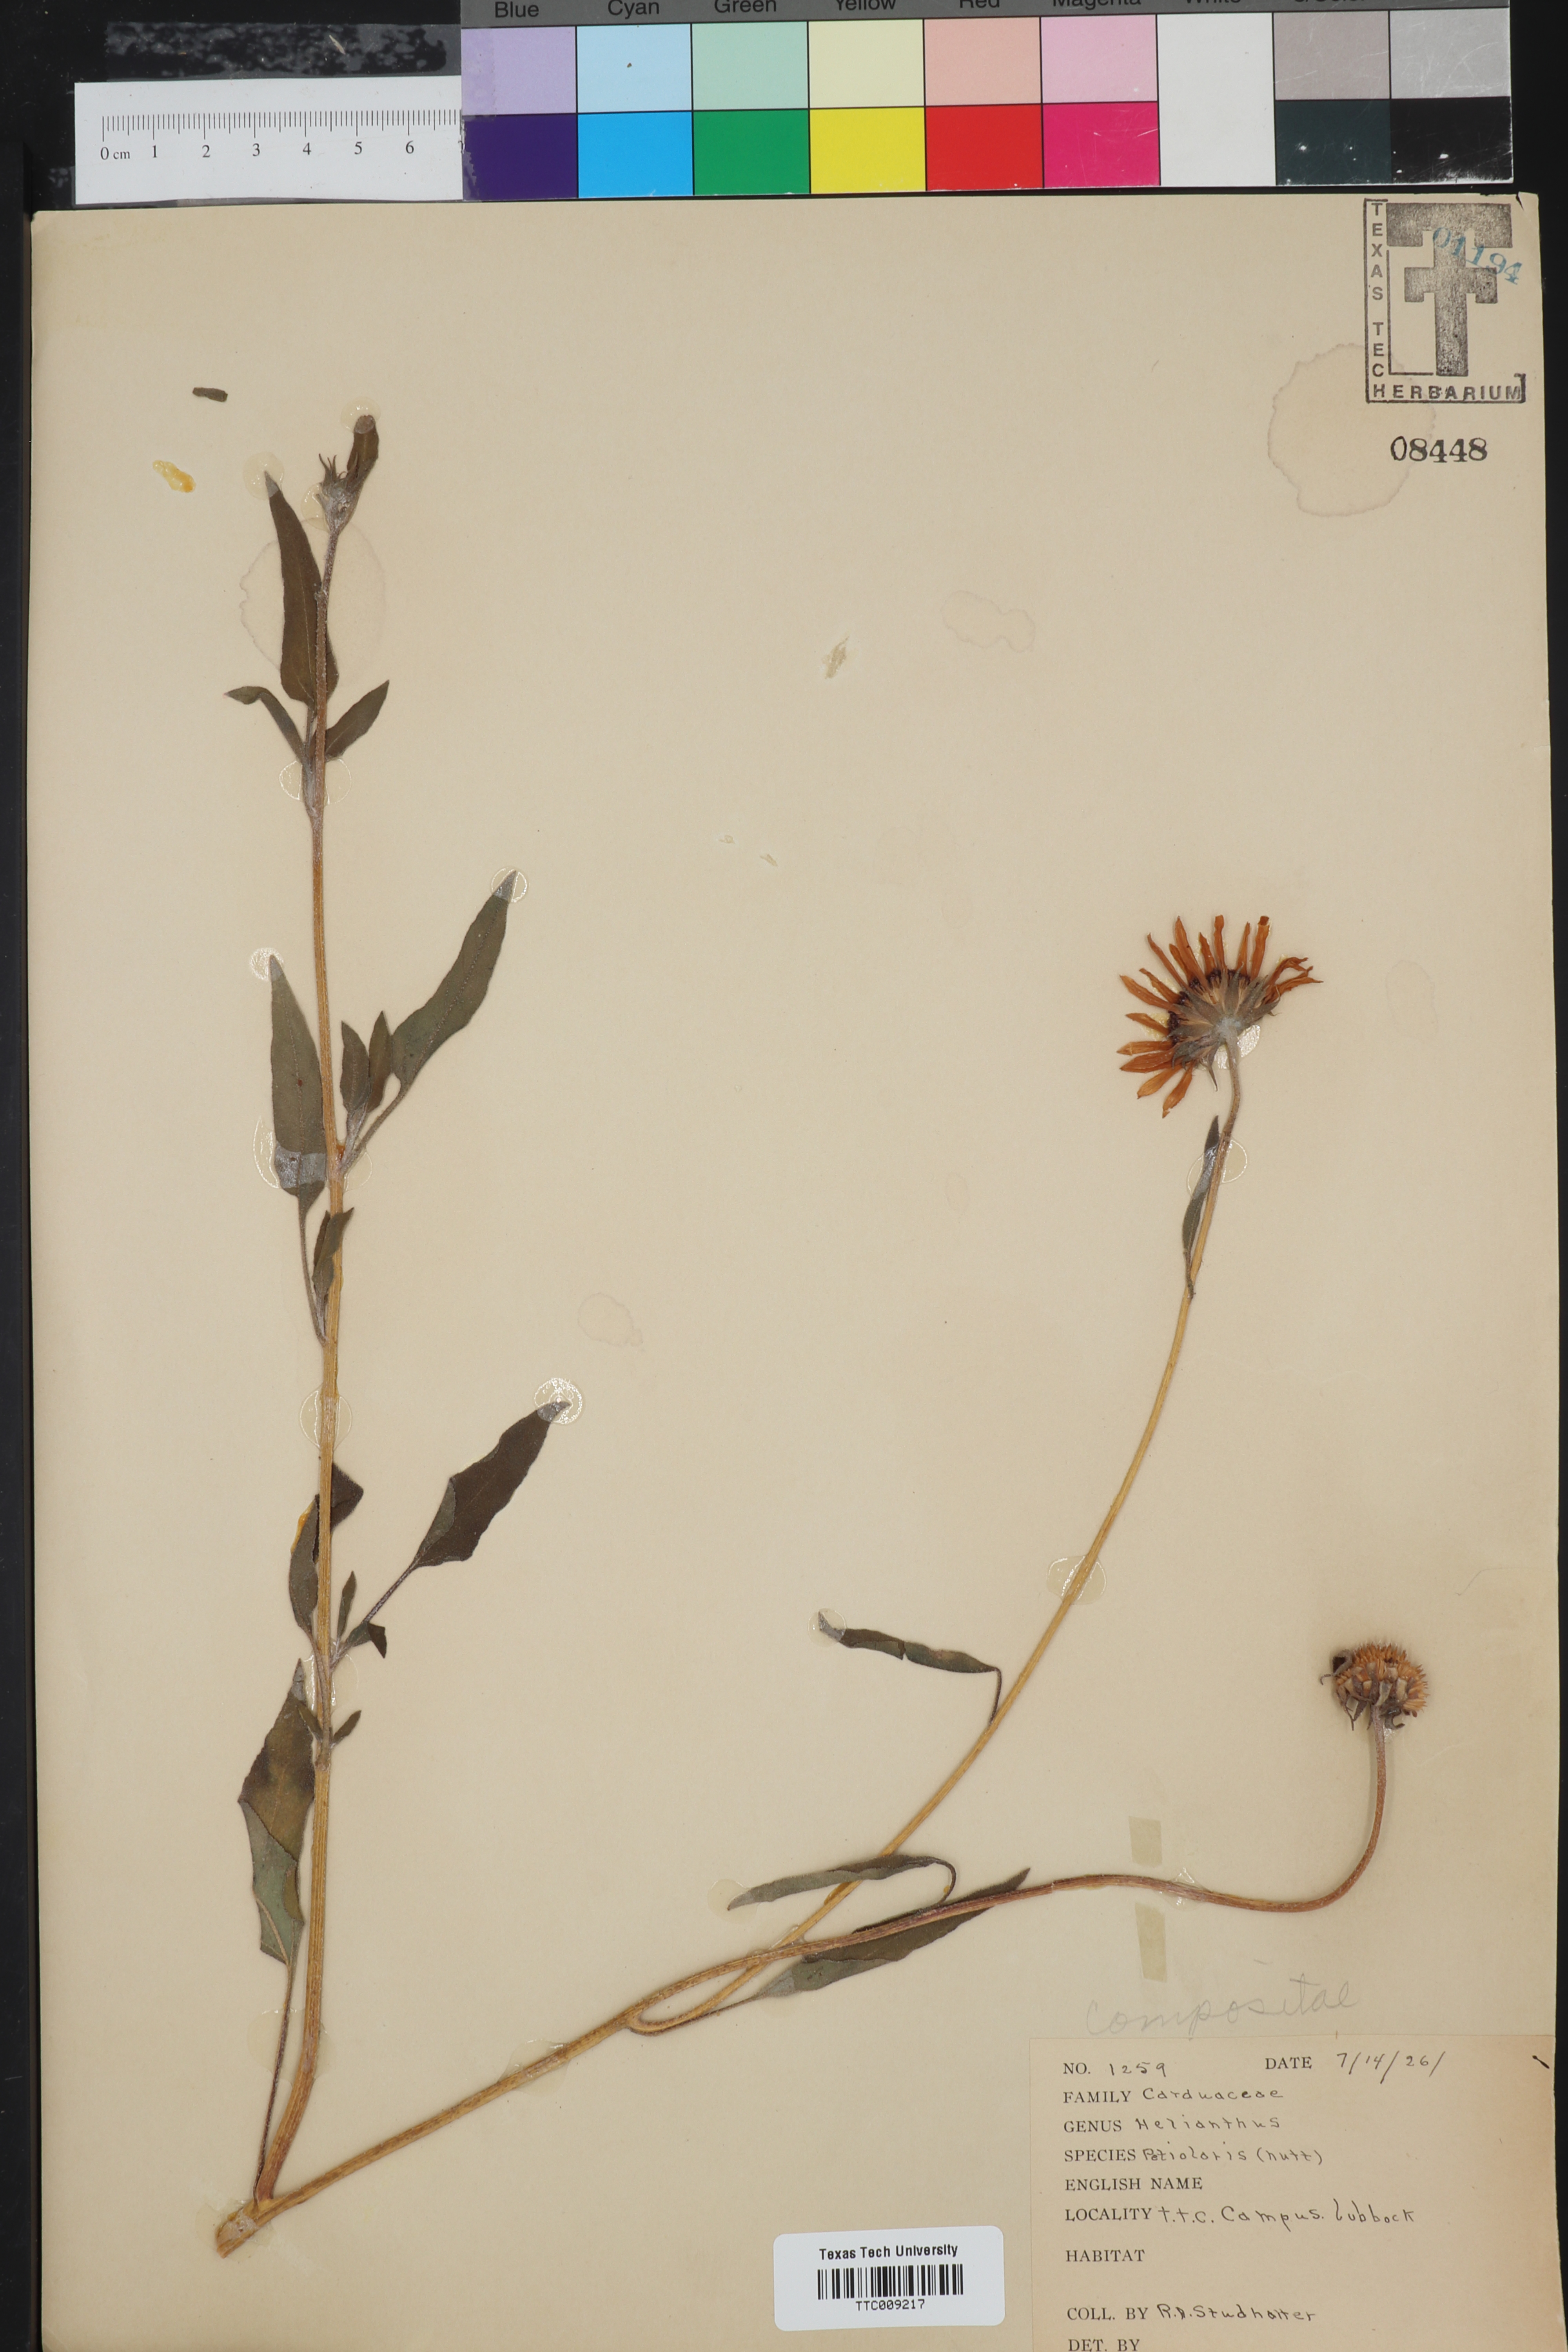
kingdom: Plantae
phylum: Tracheophyta
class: Magnoliopsida
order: Asterales
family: Asteraceae
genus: Helianthus
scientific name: Helianthus petiolaris
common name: Lesser sunflower
